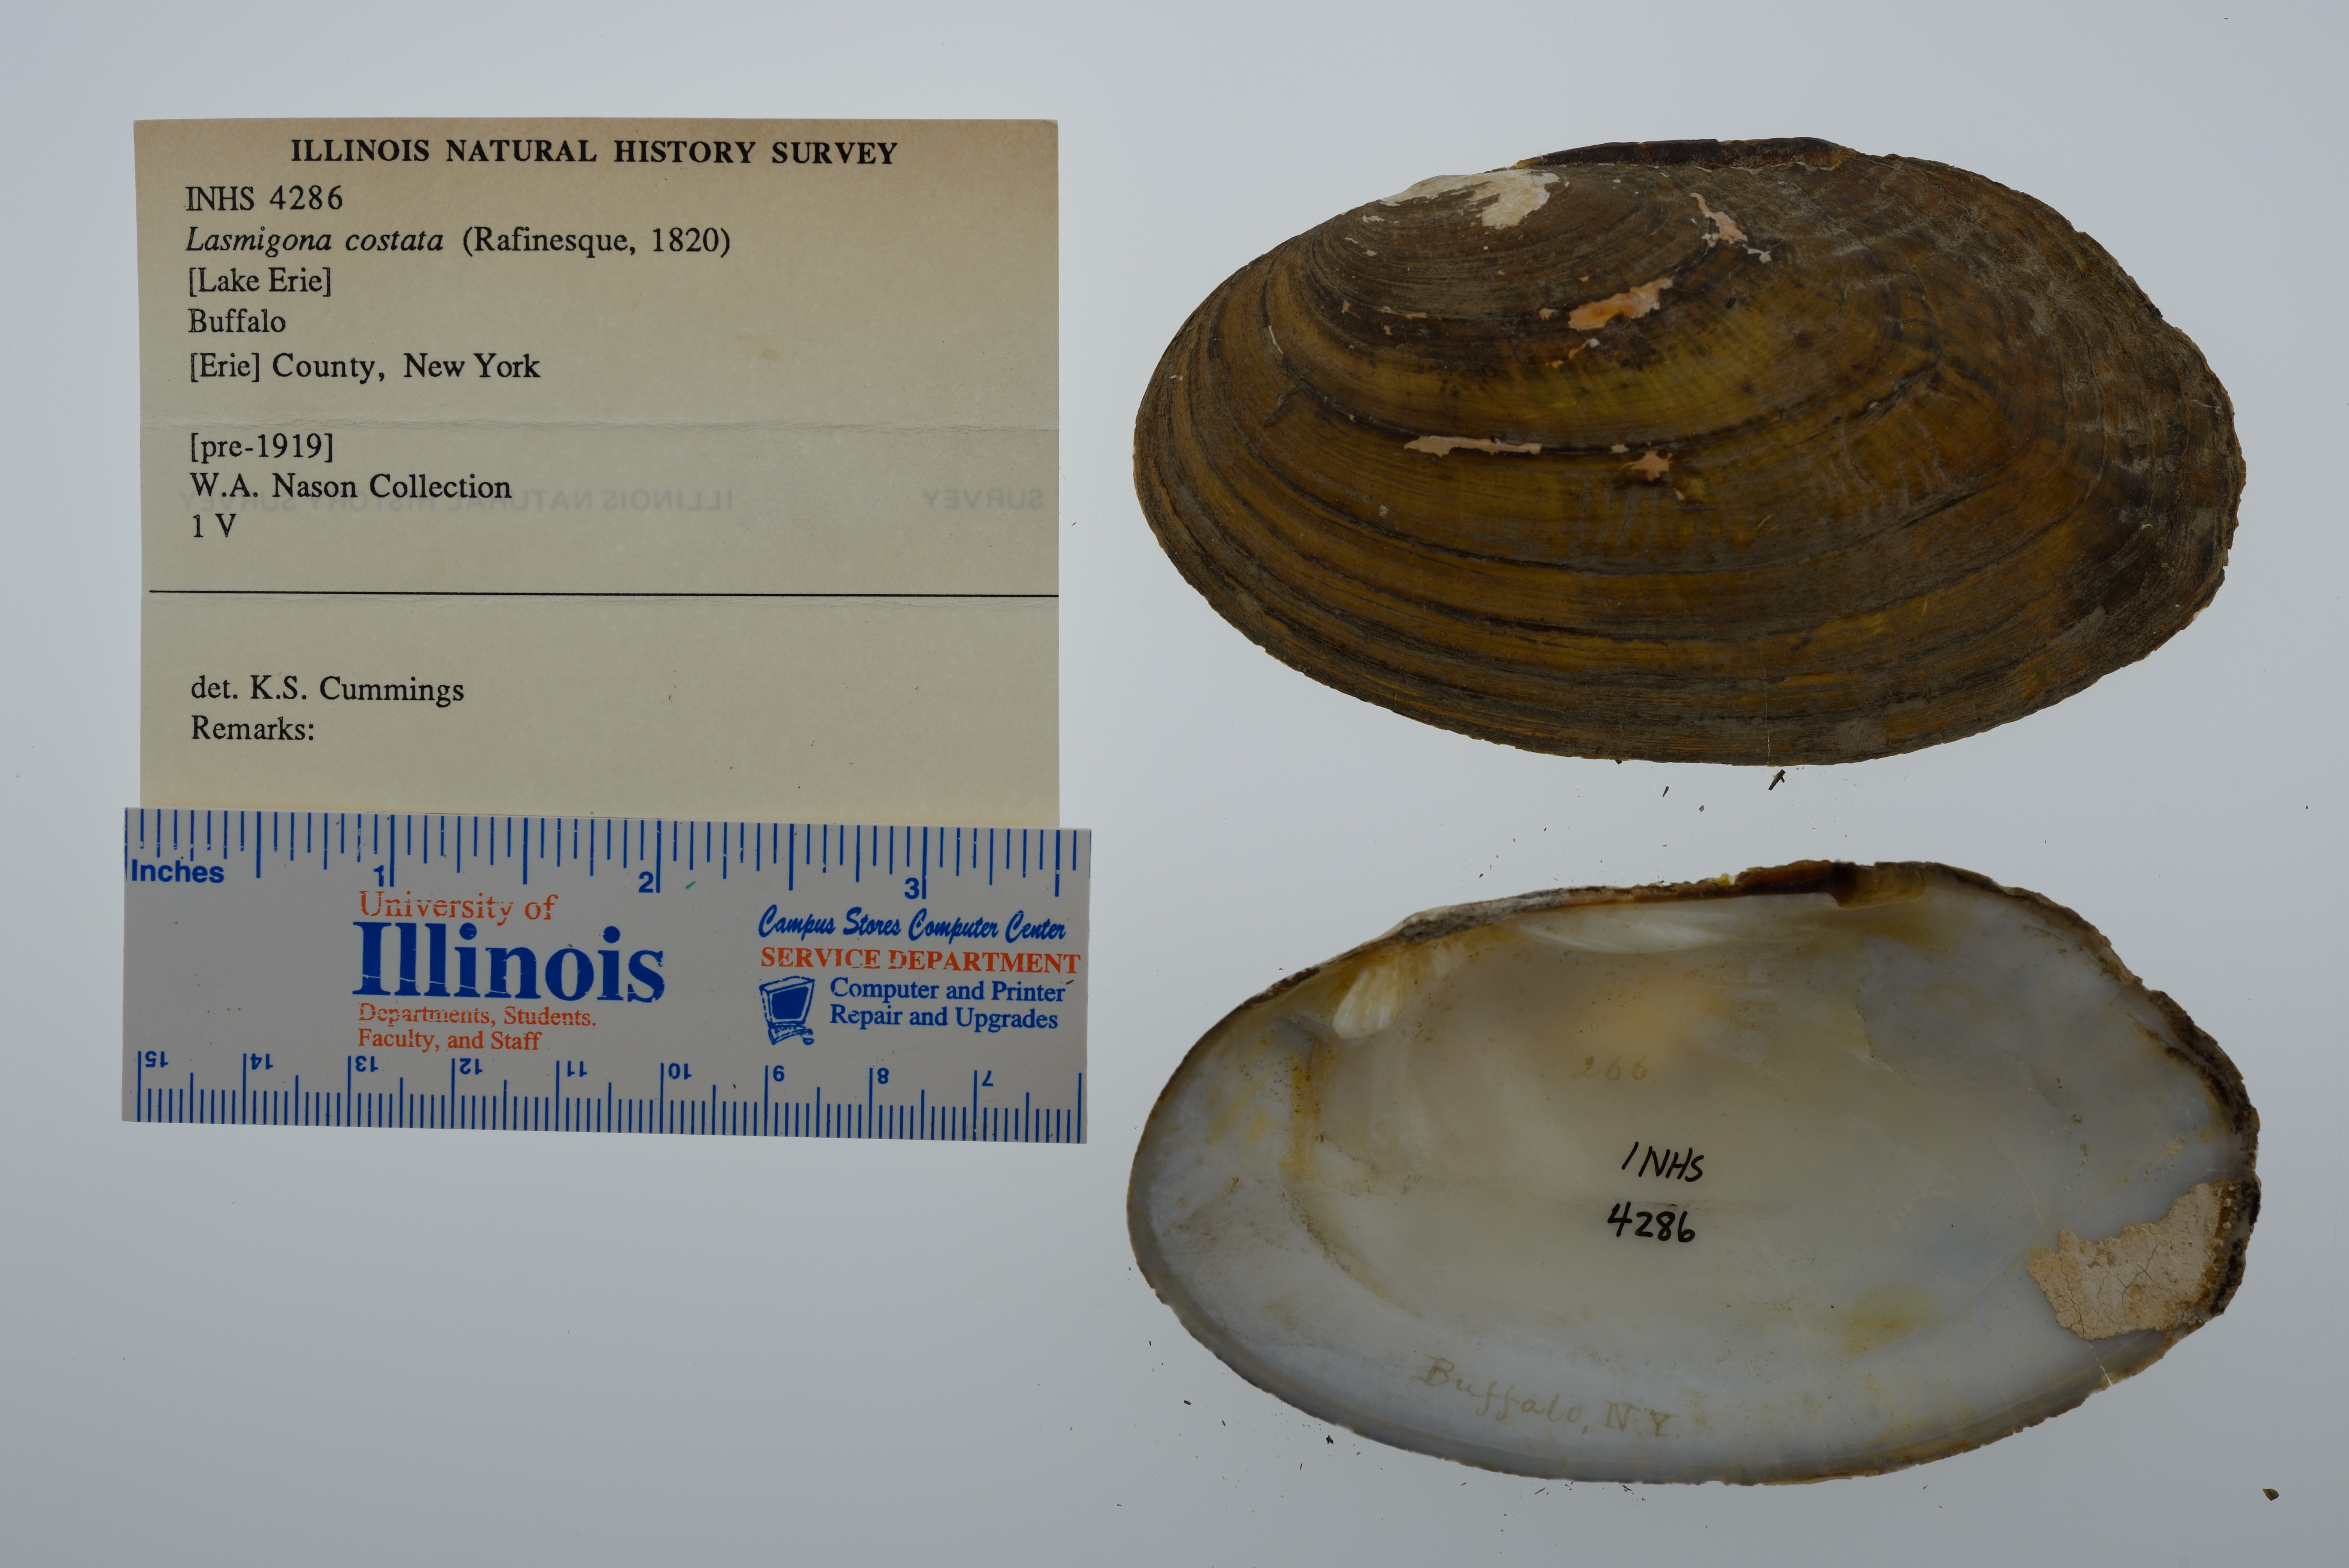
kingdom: Animalia
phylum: Mollusca
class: Bivalvia
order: Unionida
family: Unionidae
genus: Lasmigona
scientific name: Lasmigona costata
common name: Flutedshell
